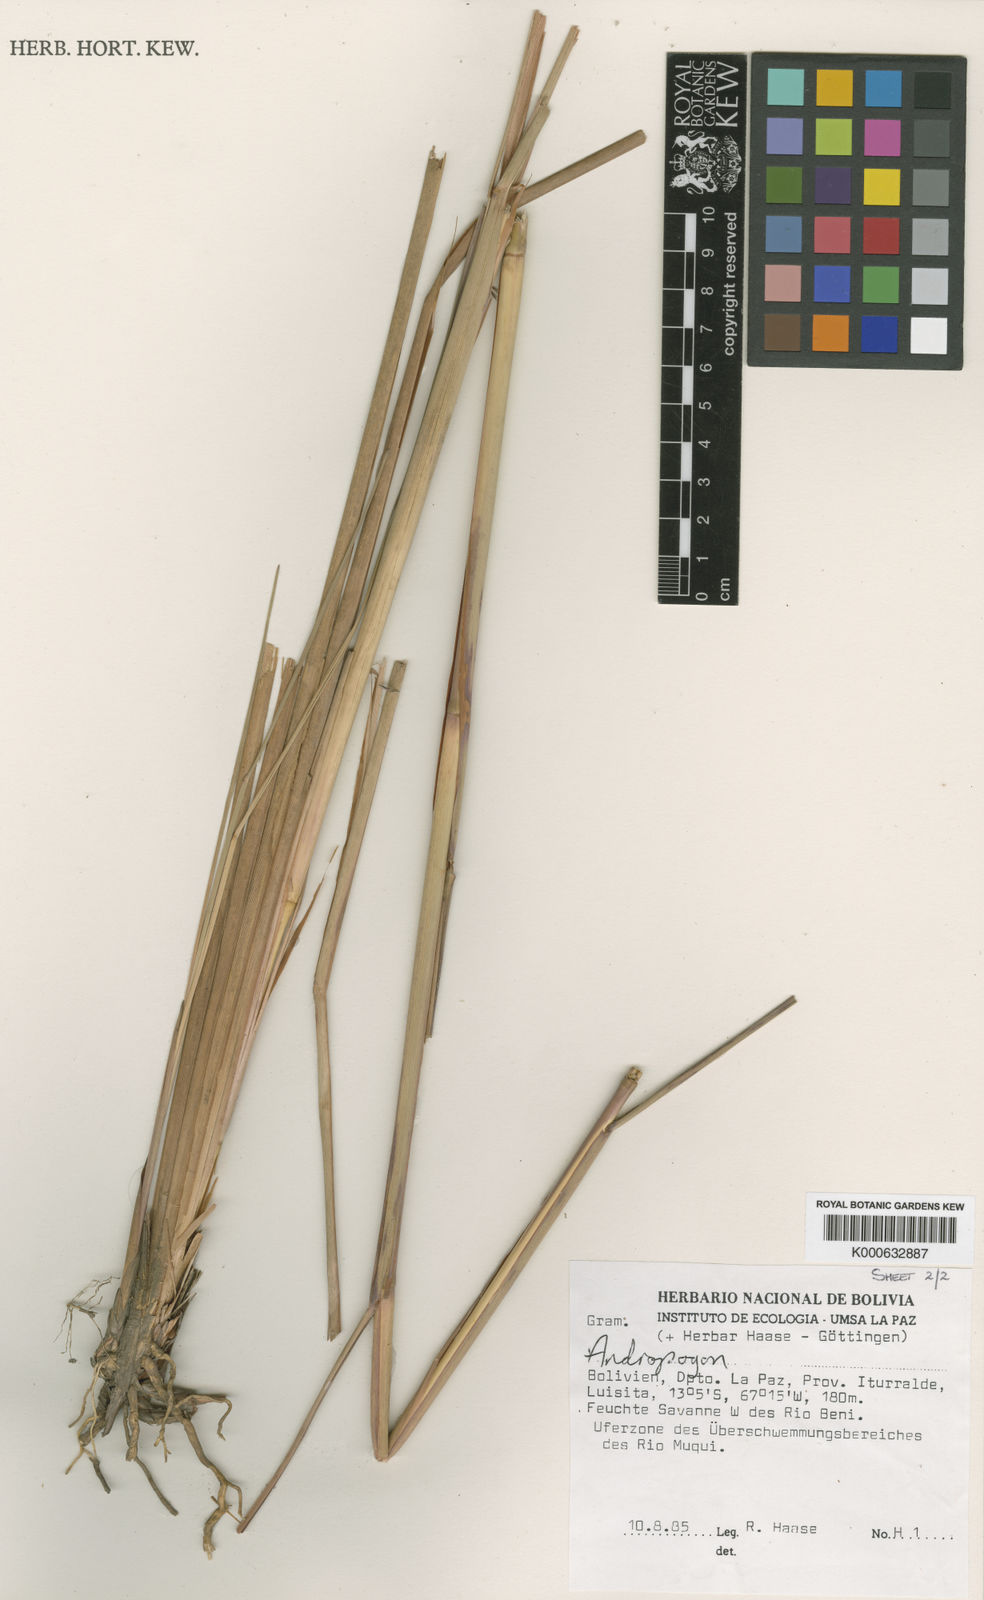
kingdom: Plantae
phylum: Tracheophyta
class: Liliopsida
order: Poales
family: Poaceae
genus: Andropogon
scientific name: Andropogon multiflorus
